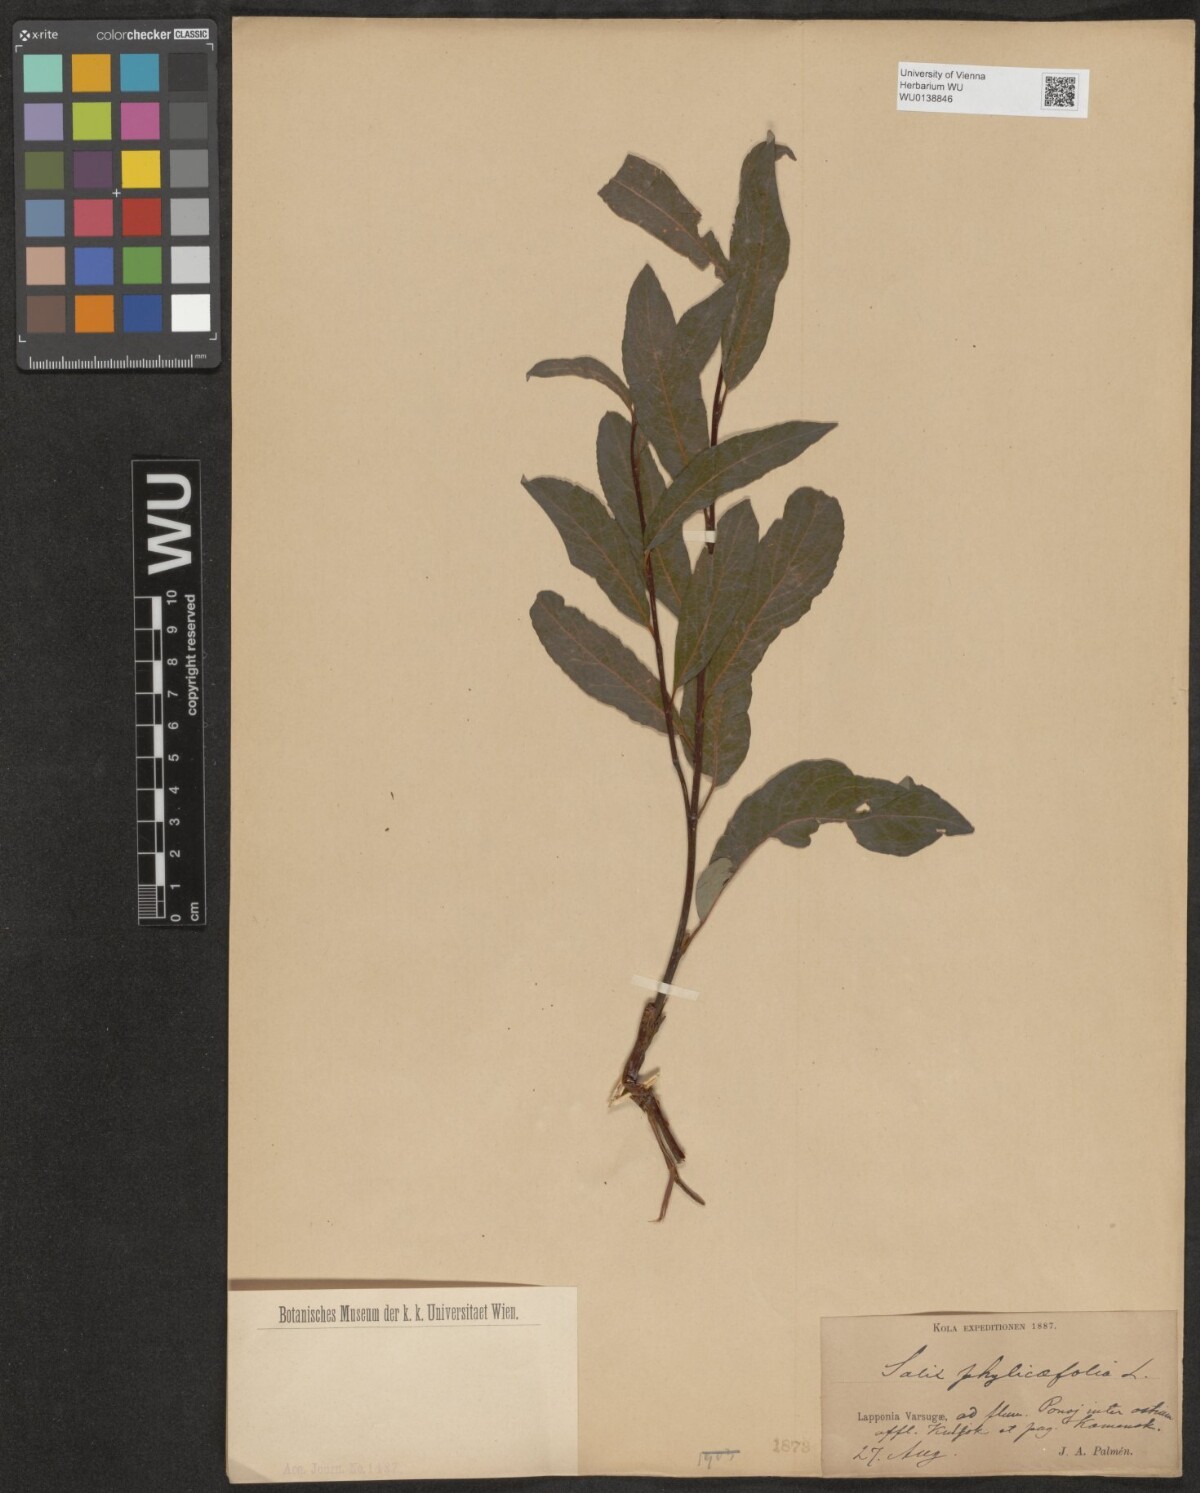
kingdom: Plantae
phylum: Tracheophyta
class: Magnoliopsida
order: Malpighiales
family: Salicaceae
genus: Salix
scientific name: Salix phylicifolia
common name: Tea-leaved willow
